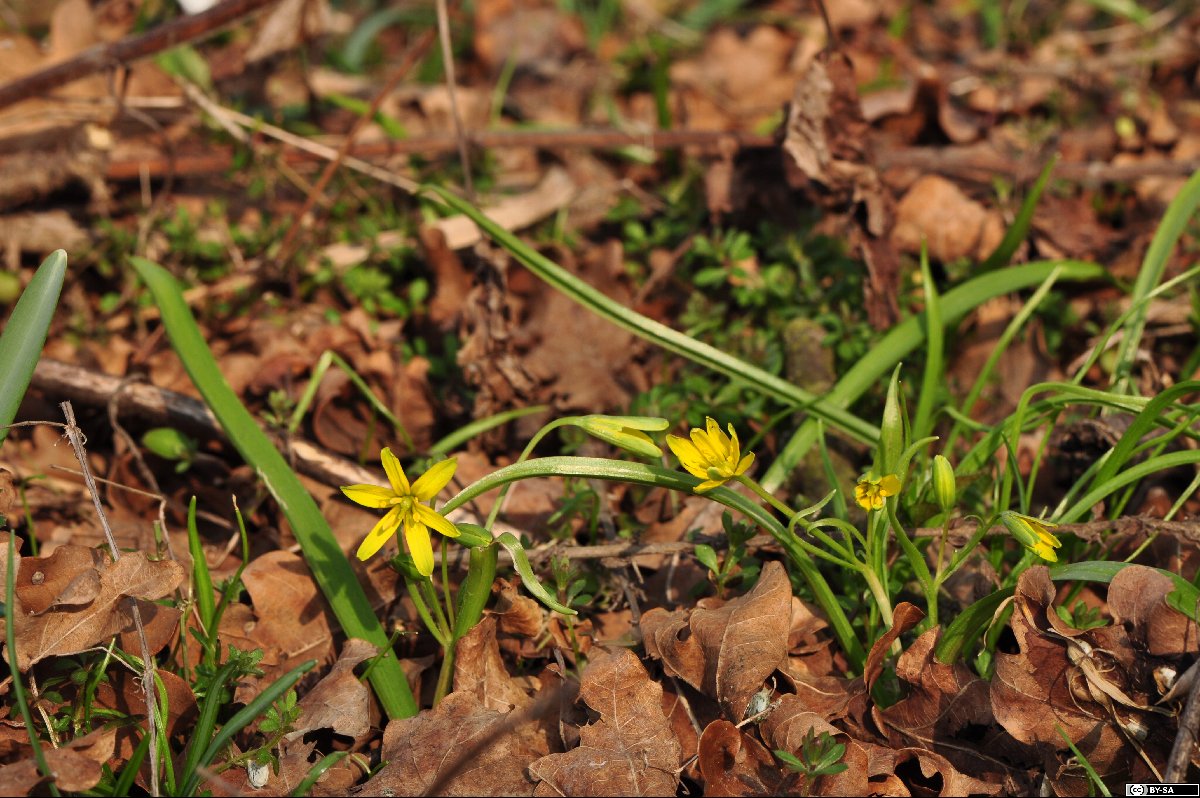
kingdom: Plantae
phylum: Tracheophyta
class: Liliopsida
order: Liliales
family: Liliaceae
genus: Gagea
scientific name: Gagea lutea
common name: Yellow star-of-bethlehem
